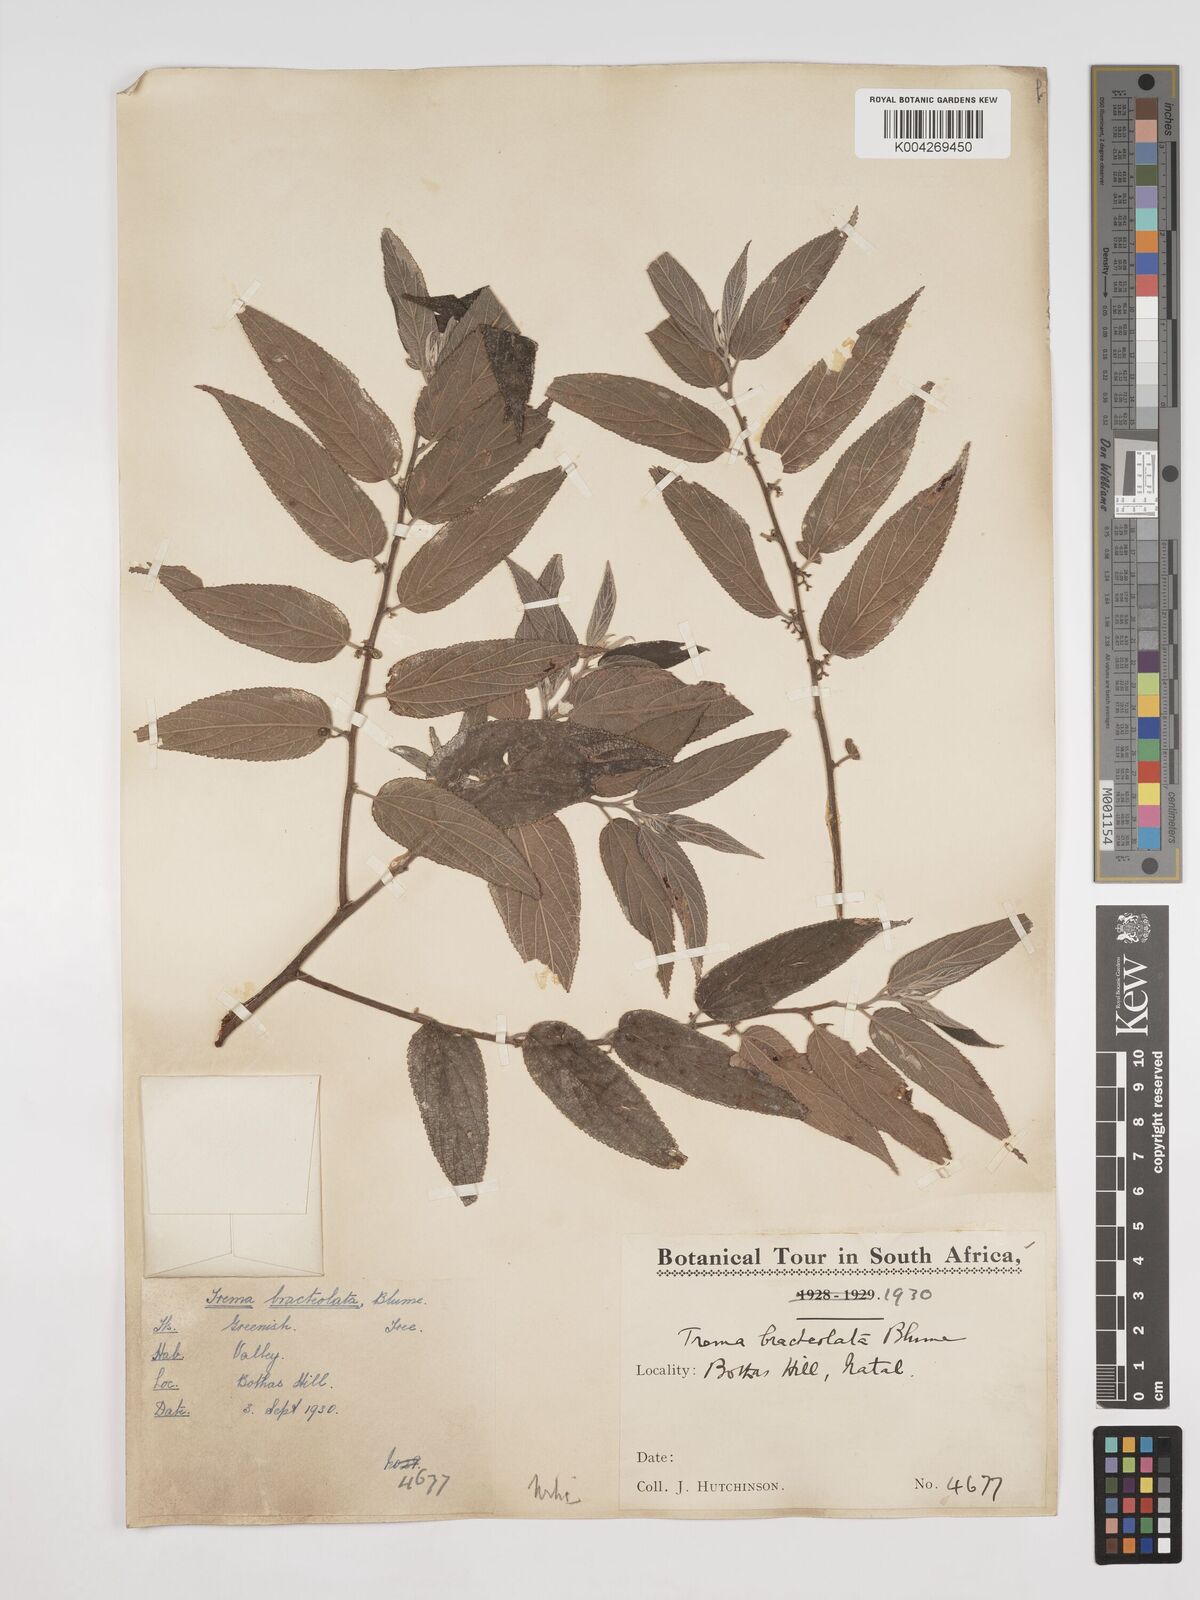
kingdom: Plantae
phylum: Tracheophyta
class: Magnoliopsida
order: Rosales
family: Cannabaceae
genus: Trema
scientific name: Trema orientale
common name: Indian charcoal tree
